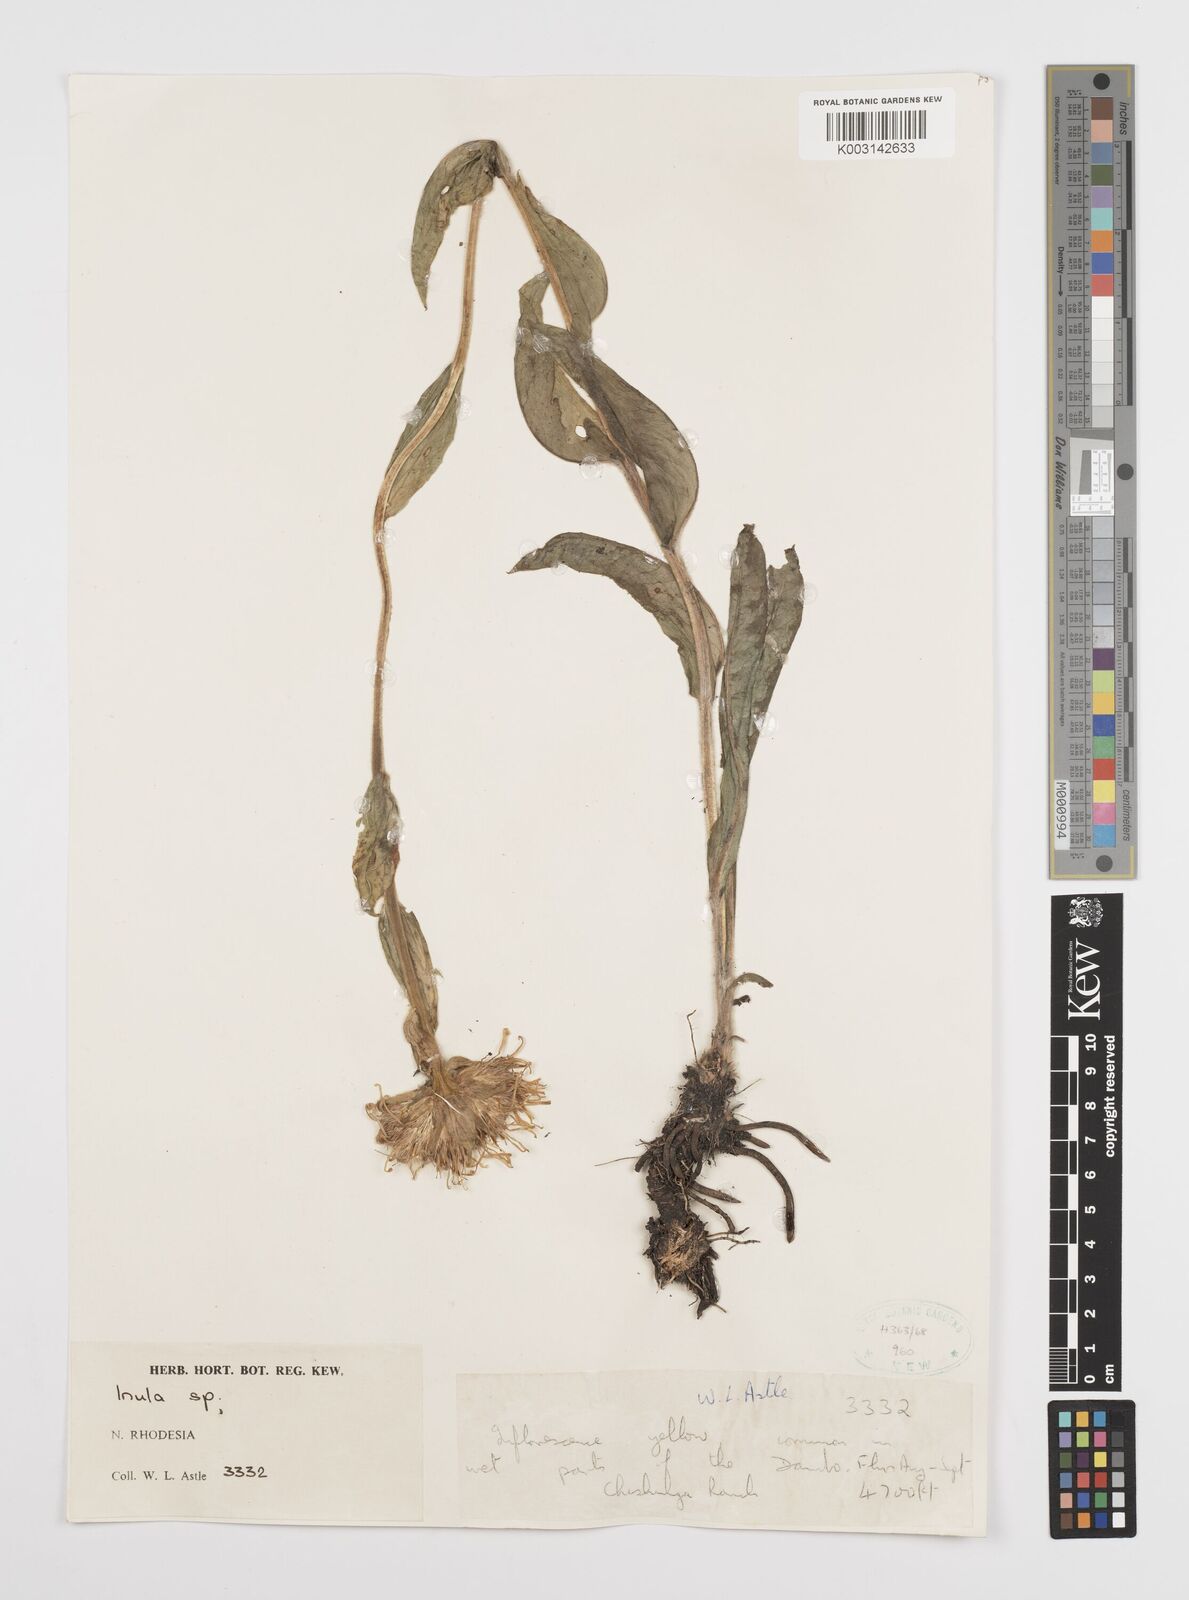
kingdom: Plantae
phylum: Tracheophyta
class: Magnoliopsida
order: Asterales
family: Asteraceae
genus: Inula
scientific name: Inula paludosa
